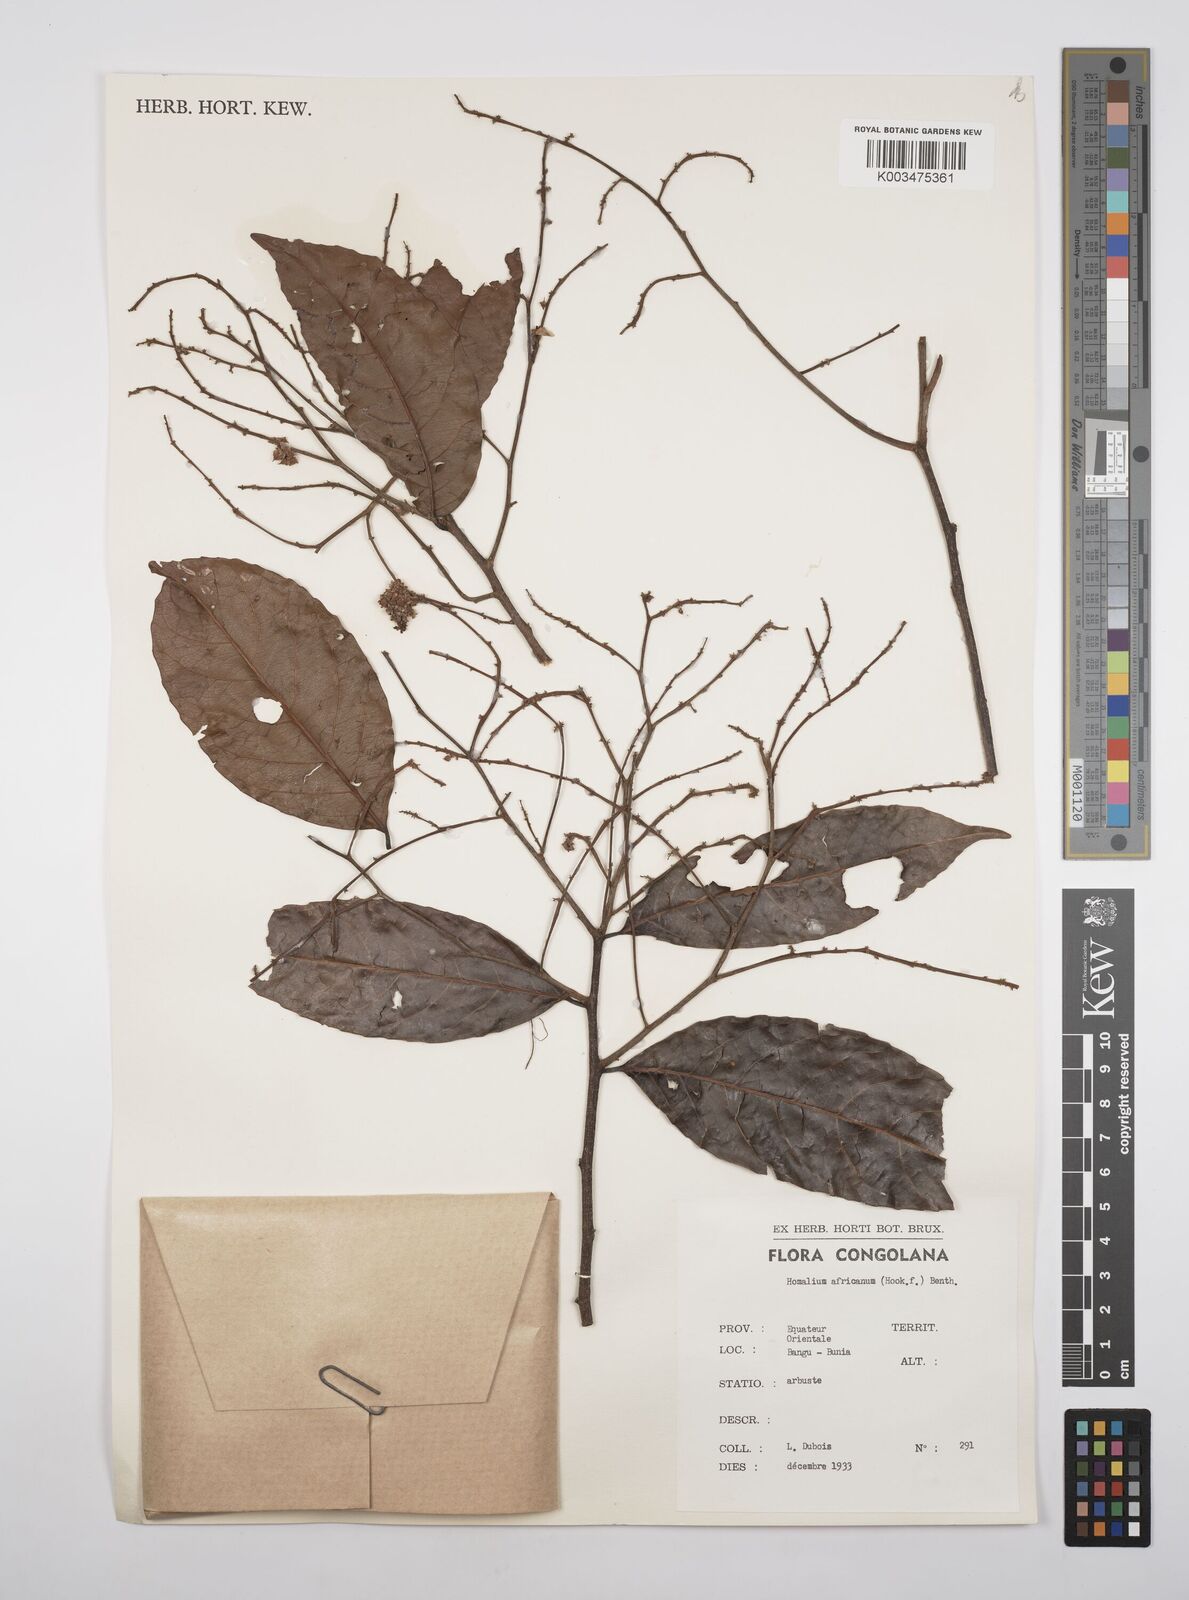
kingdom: Plantae
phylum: Tracheophyta
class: Magnoliopsida
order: Malpighiales
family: Salicaceae
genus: Homalium
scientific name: Homalium africanum
